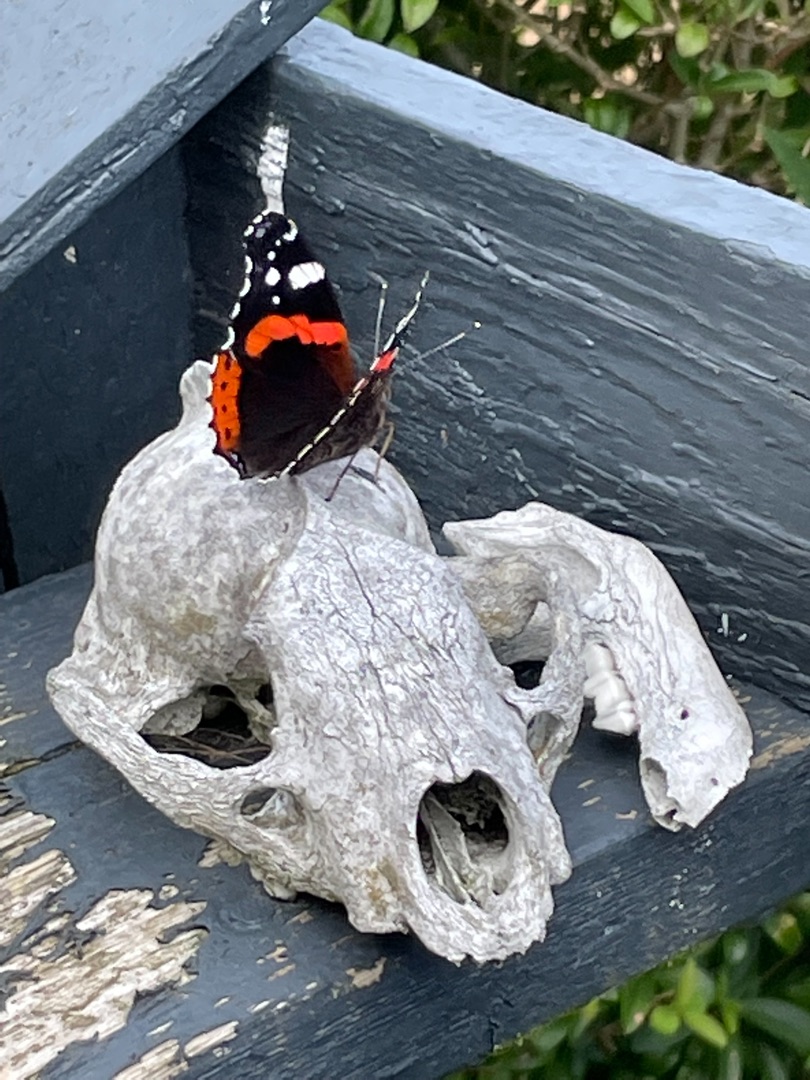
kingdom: Animalia
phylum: Arthropoda
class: Insecta
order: Lepidoptera
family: Nymphalidae
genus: Vanessa
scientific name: Vanessa atalanta
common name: Admiral
